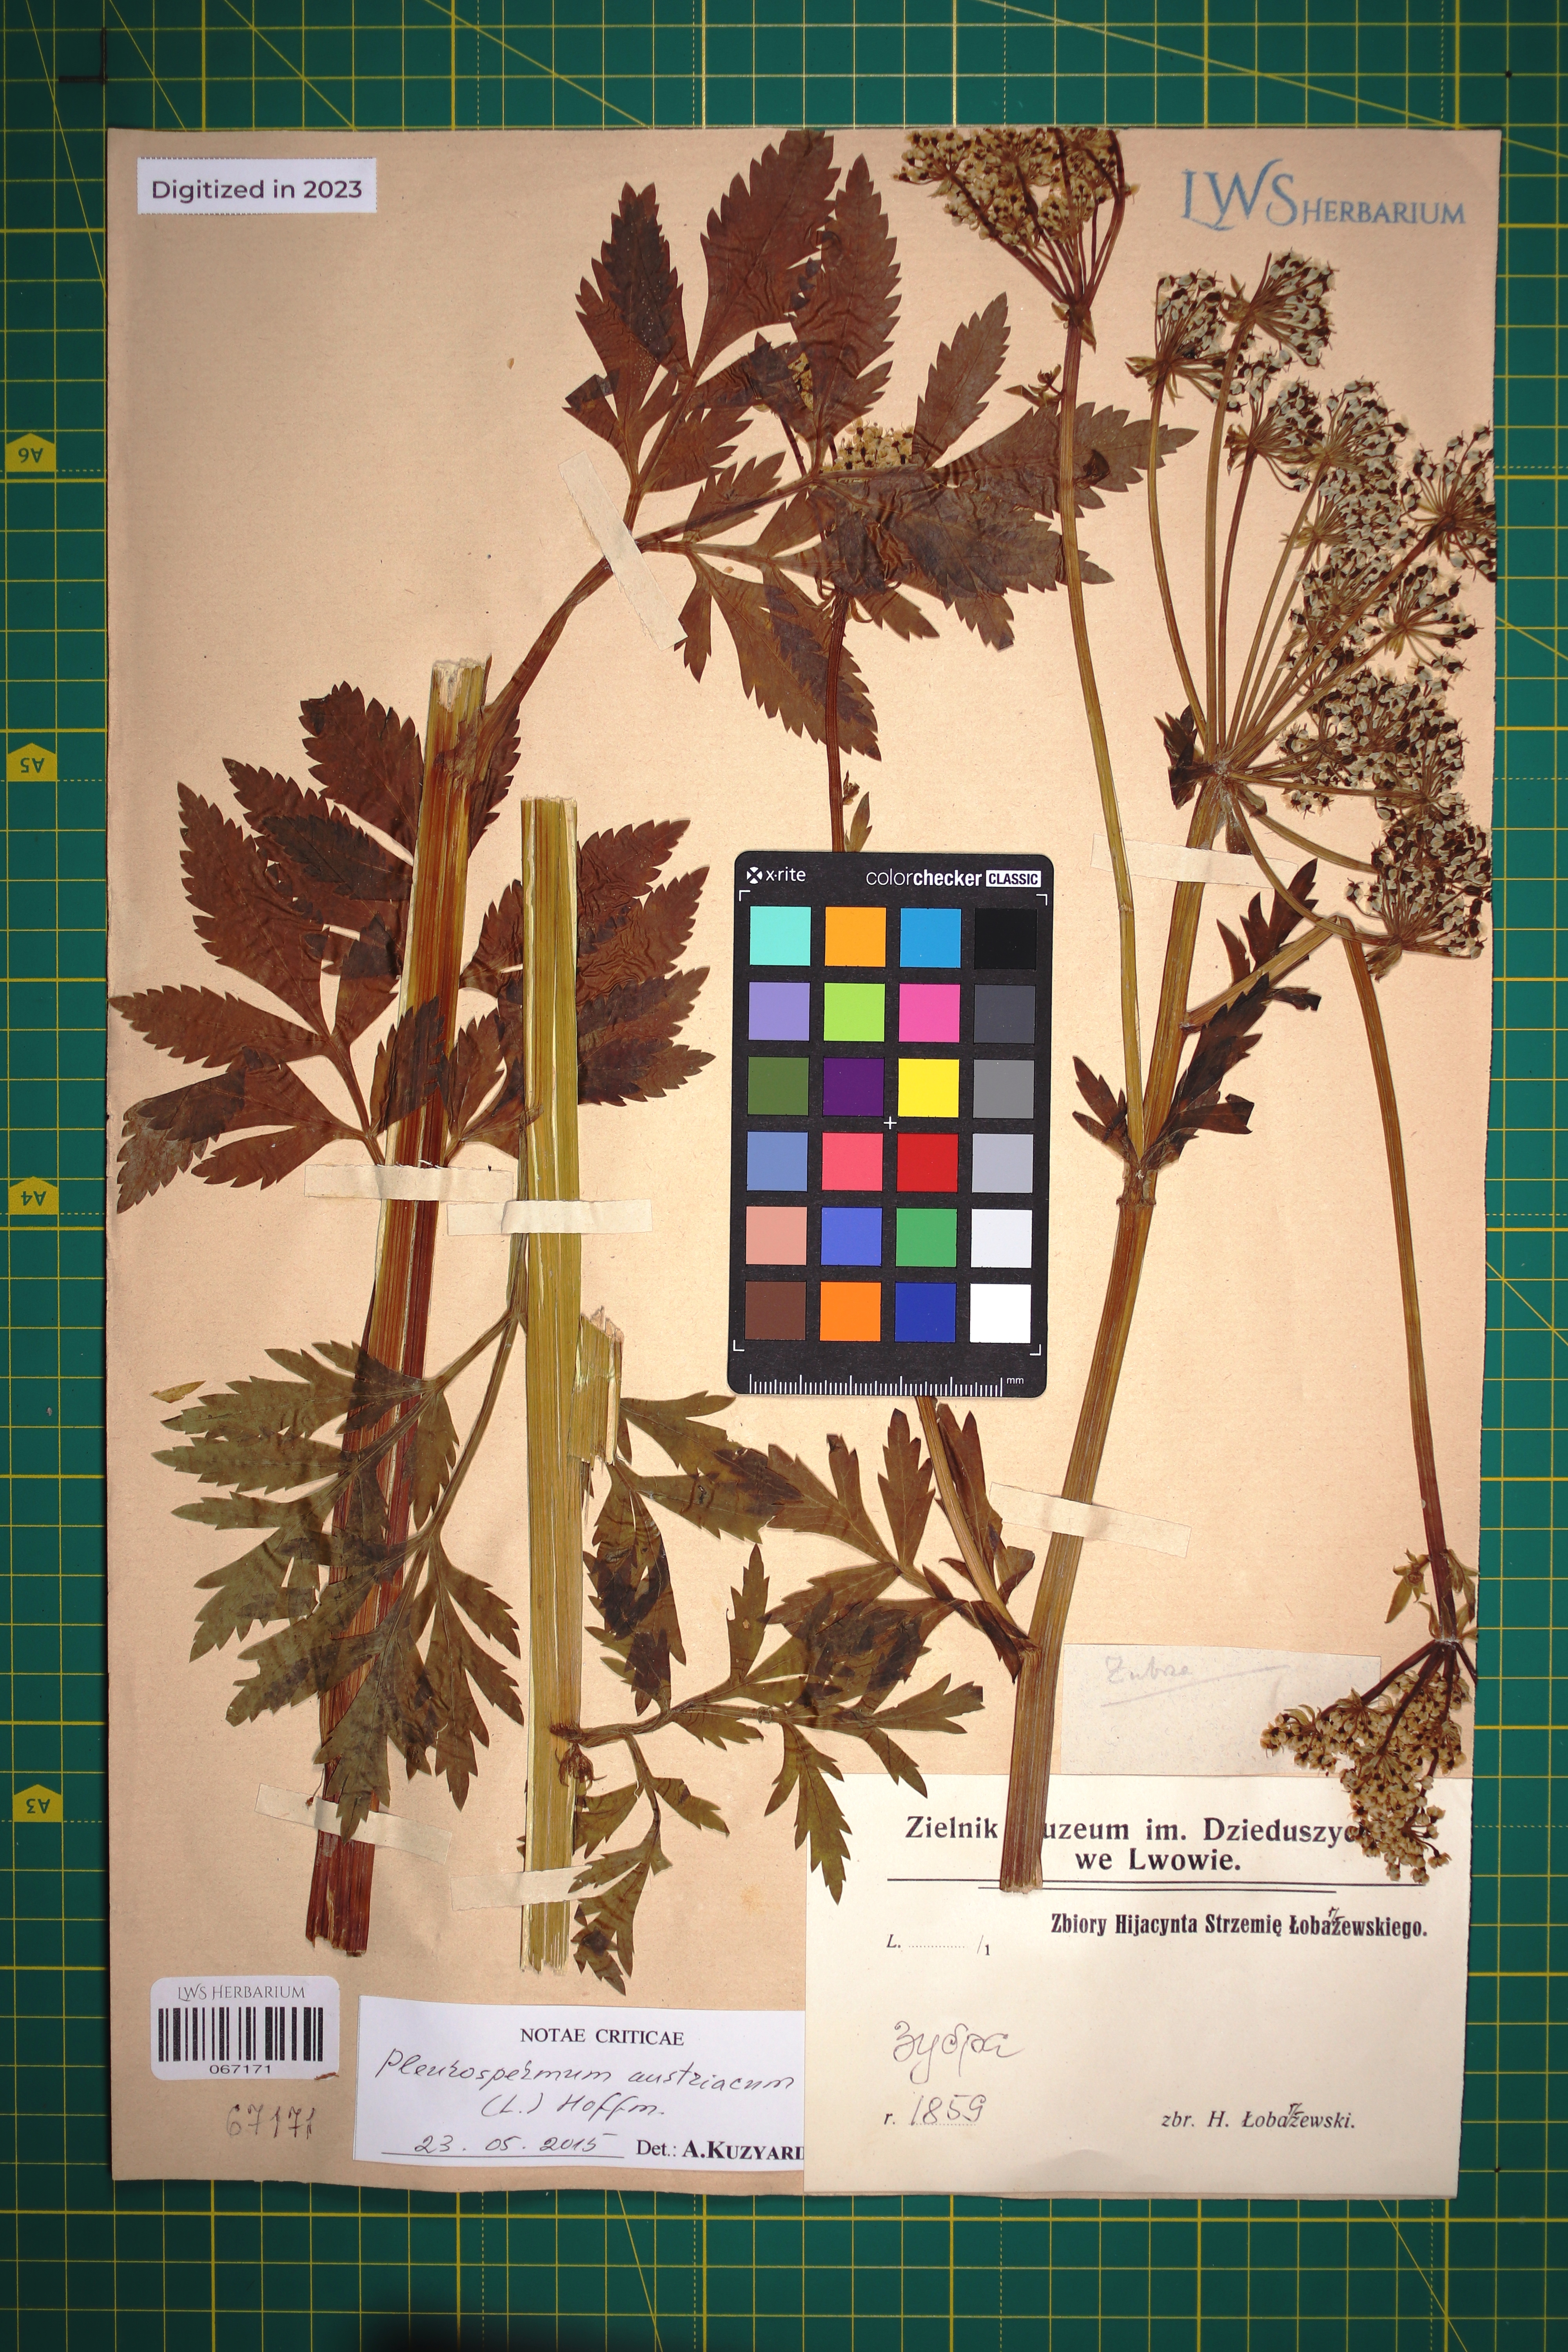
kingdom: Plantae
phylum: Tracheophyta
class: Magnoliopsida
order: Apiales
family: Apiaceae
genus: Pleurospermum
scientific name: Pleurospermum austriacum
